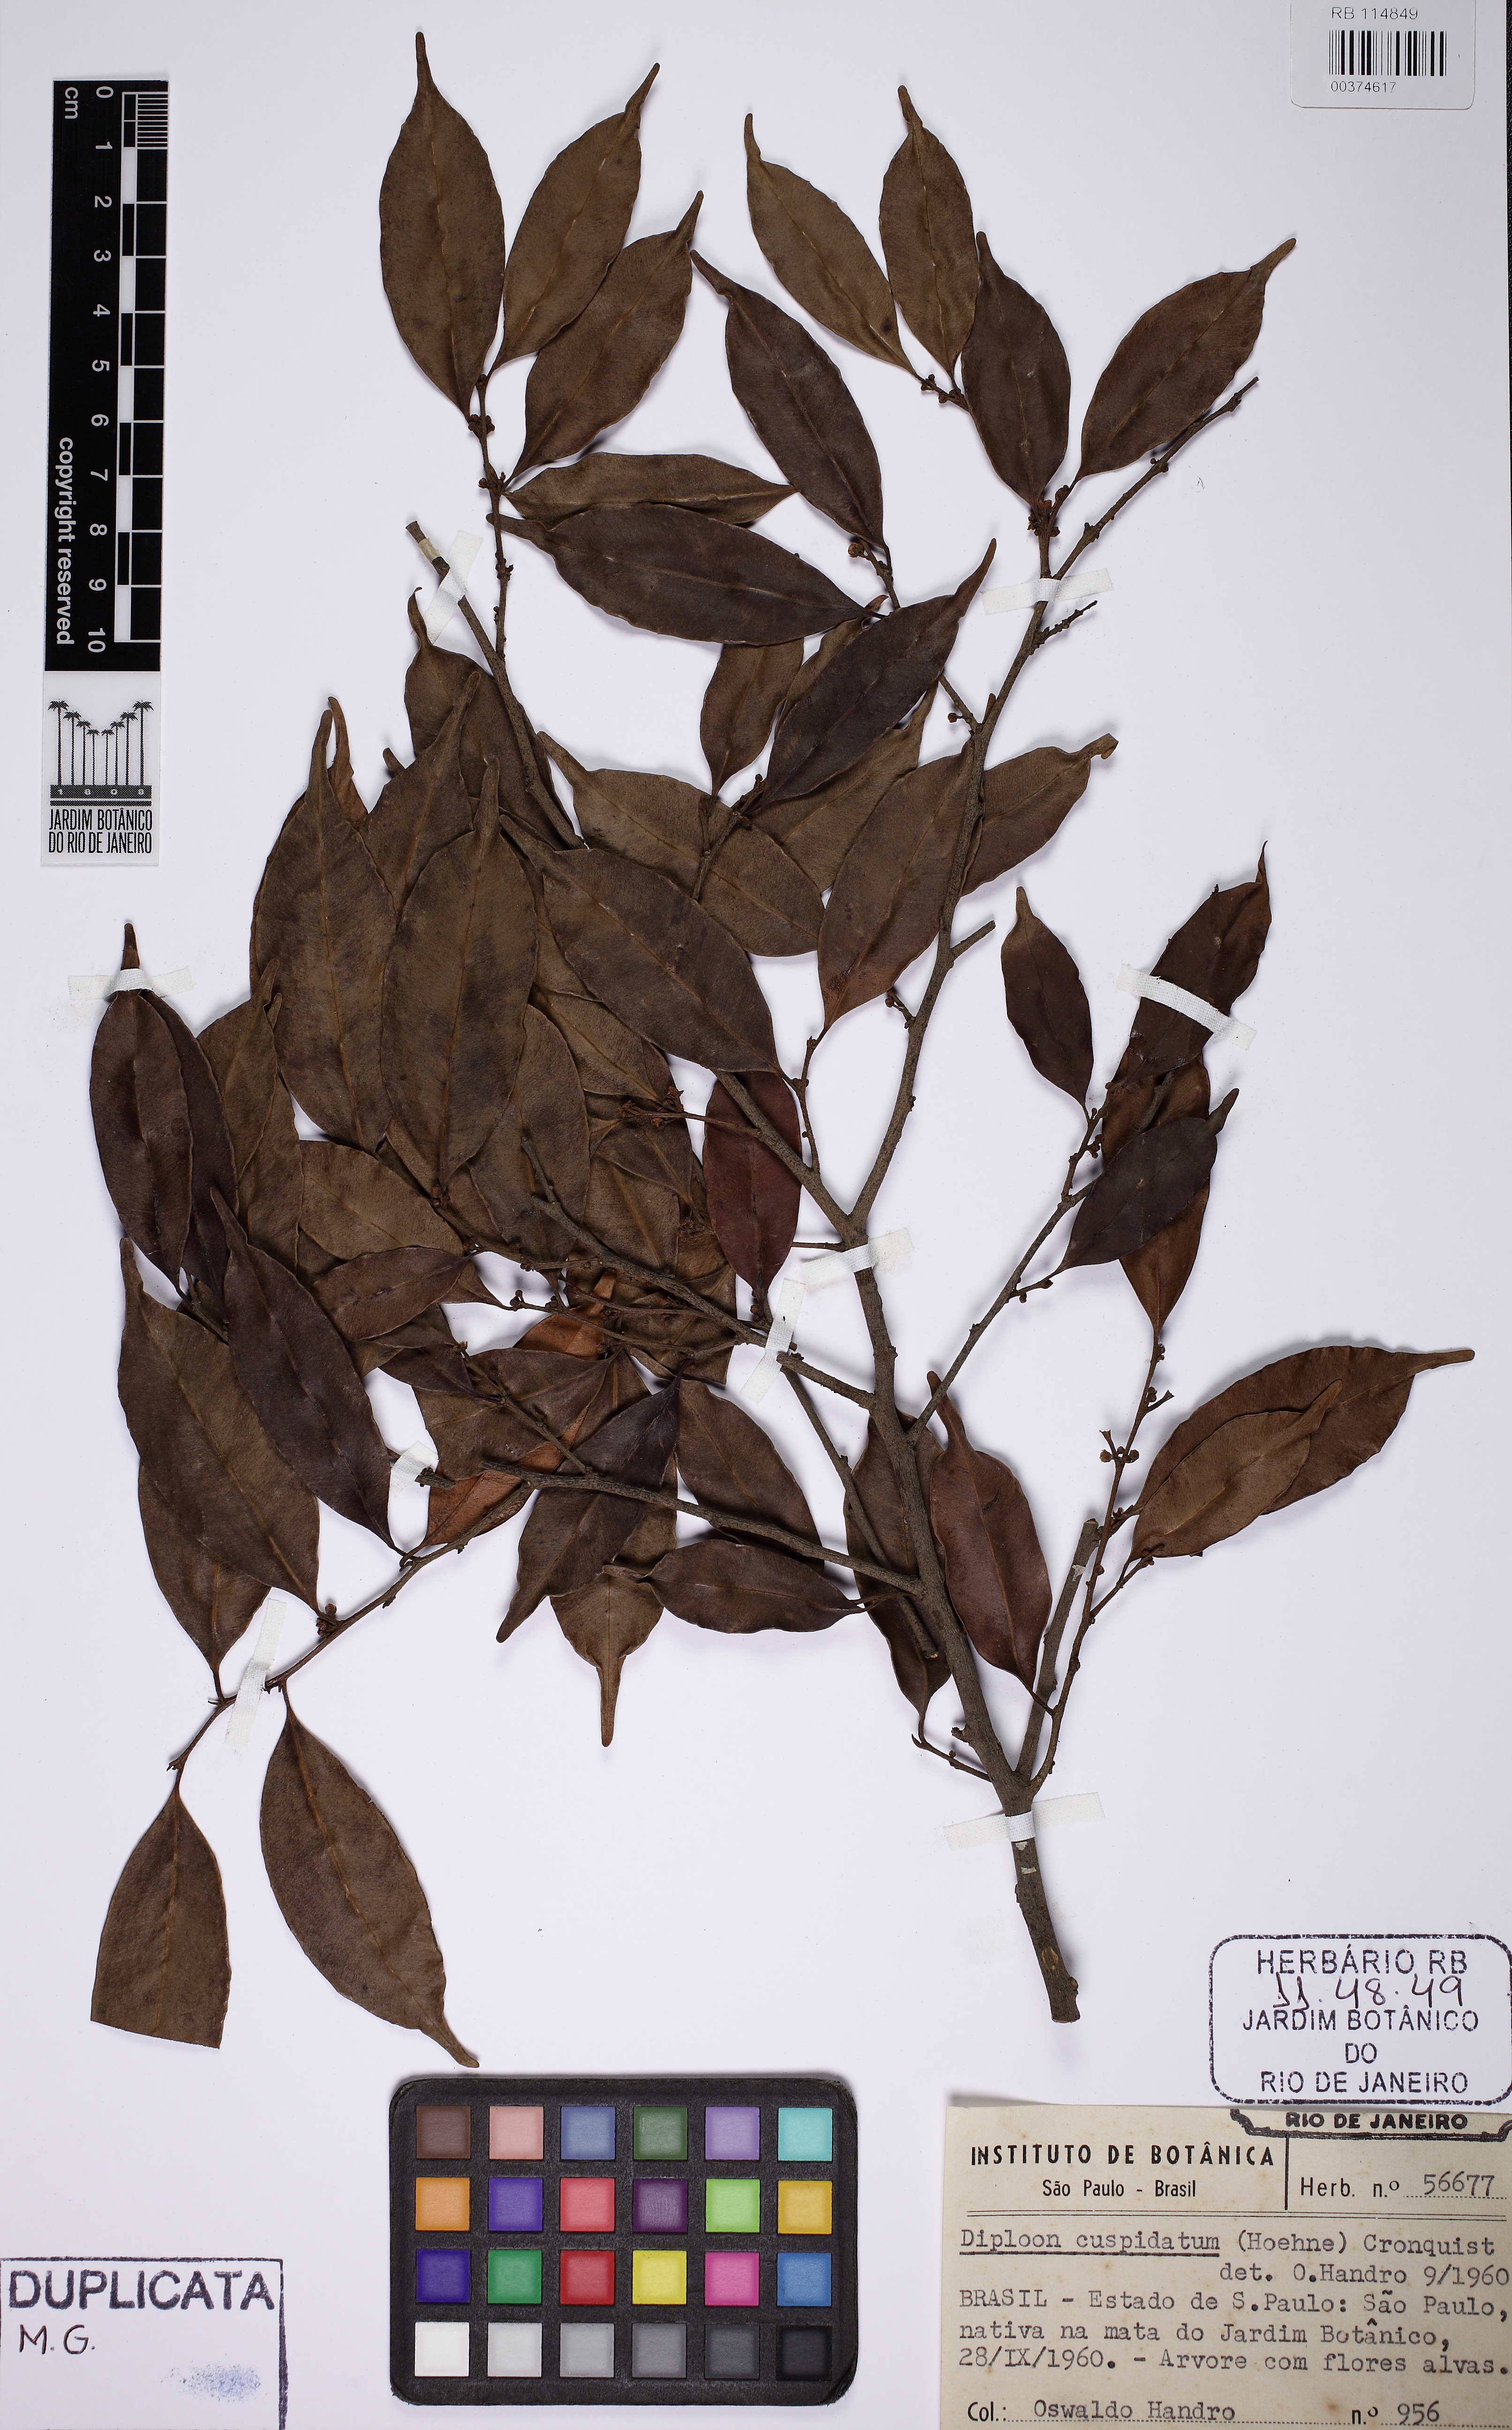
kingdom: Plantae
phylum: Tracheophyta
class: Magnoliopsida
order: Ericales
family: Sapotaceae
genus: Diploon
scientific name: Diploon cuspidatum
